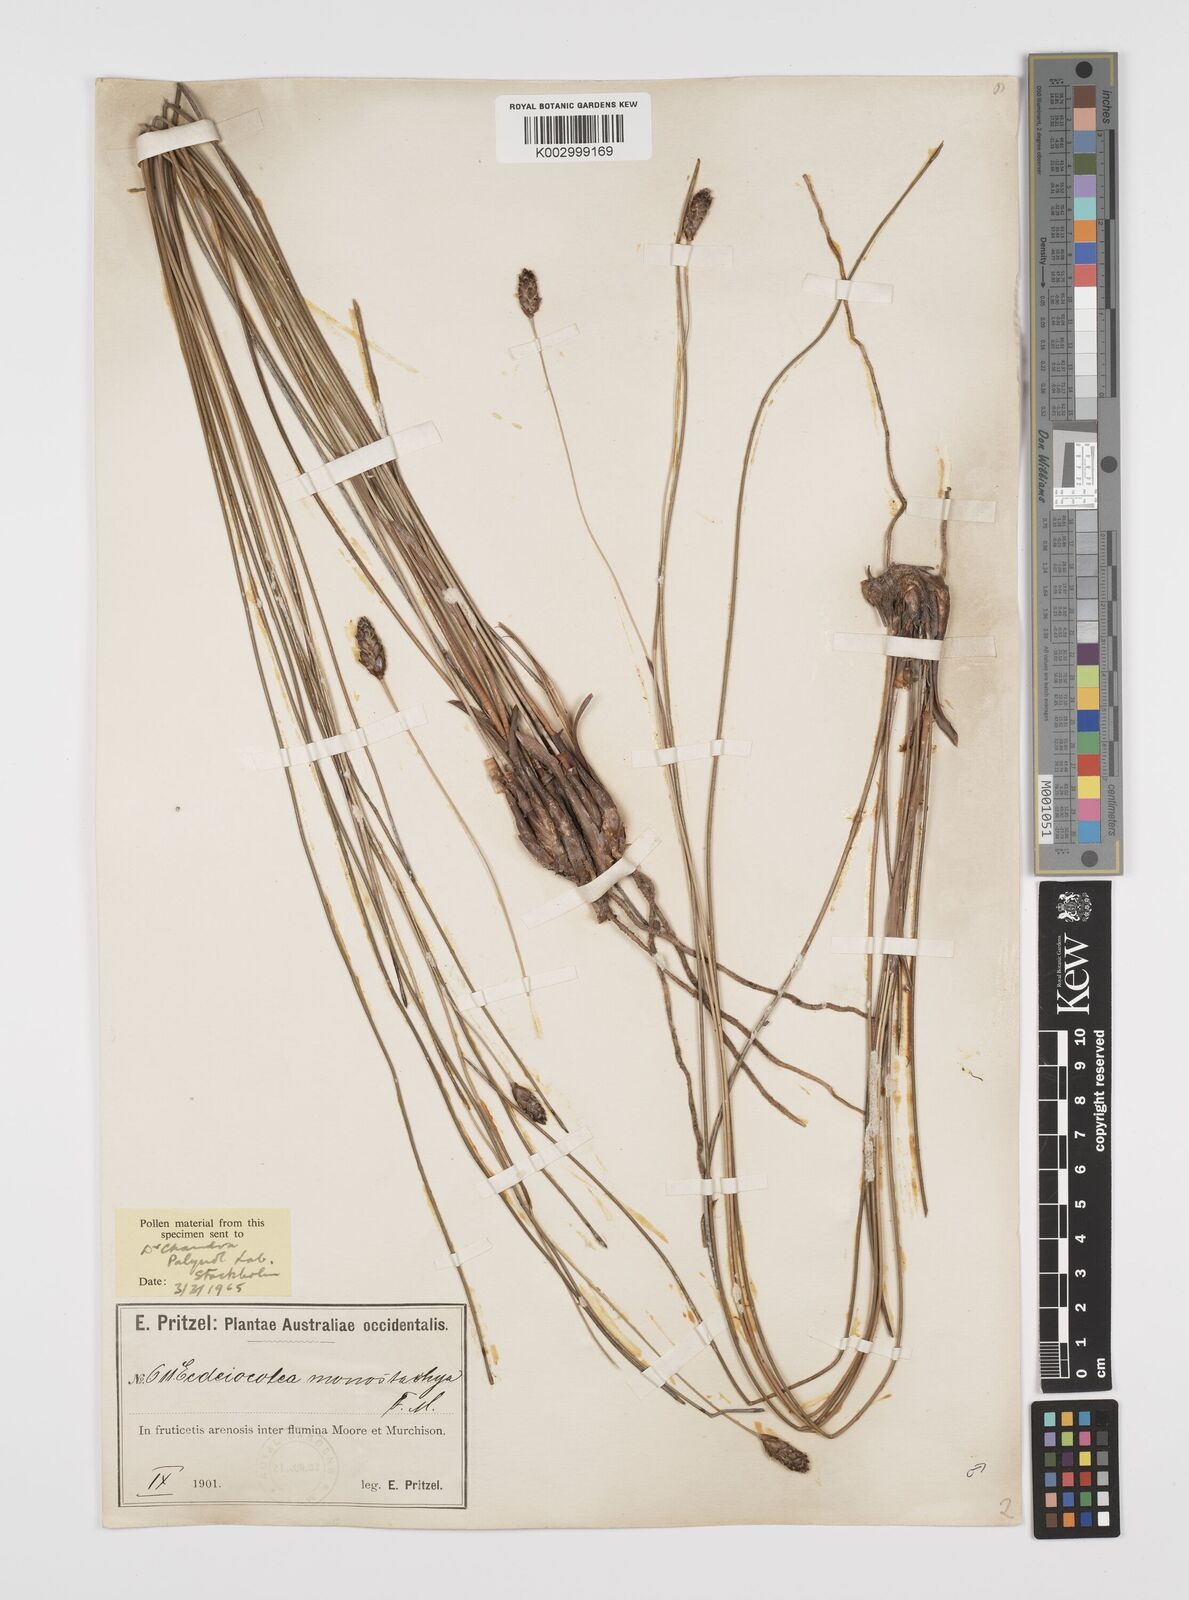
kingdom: Plantae
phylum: Tracheophyta
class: Liliopsida
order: Poales
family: Ecdeiocoleaceae
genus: Ecdeiocolea
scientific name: Ecdeiocolea monostachya
